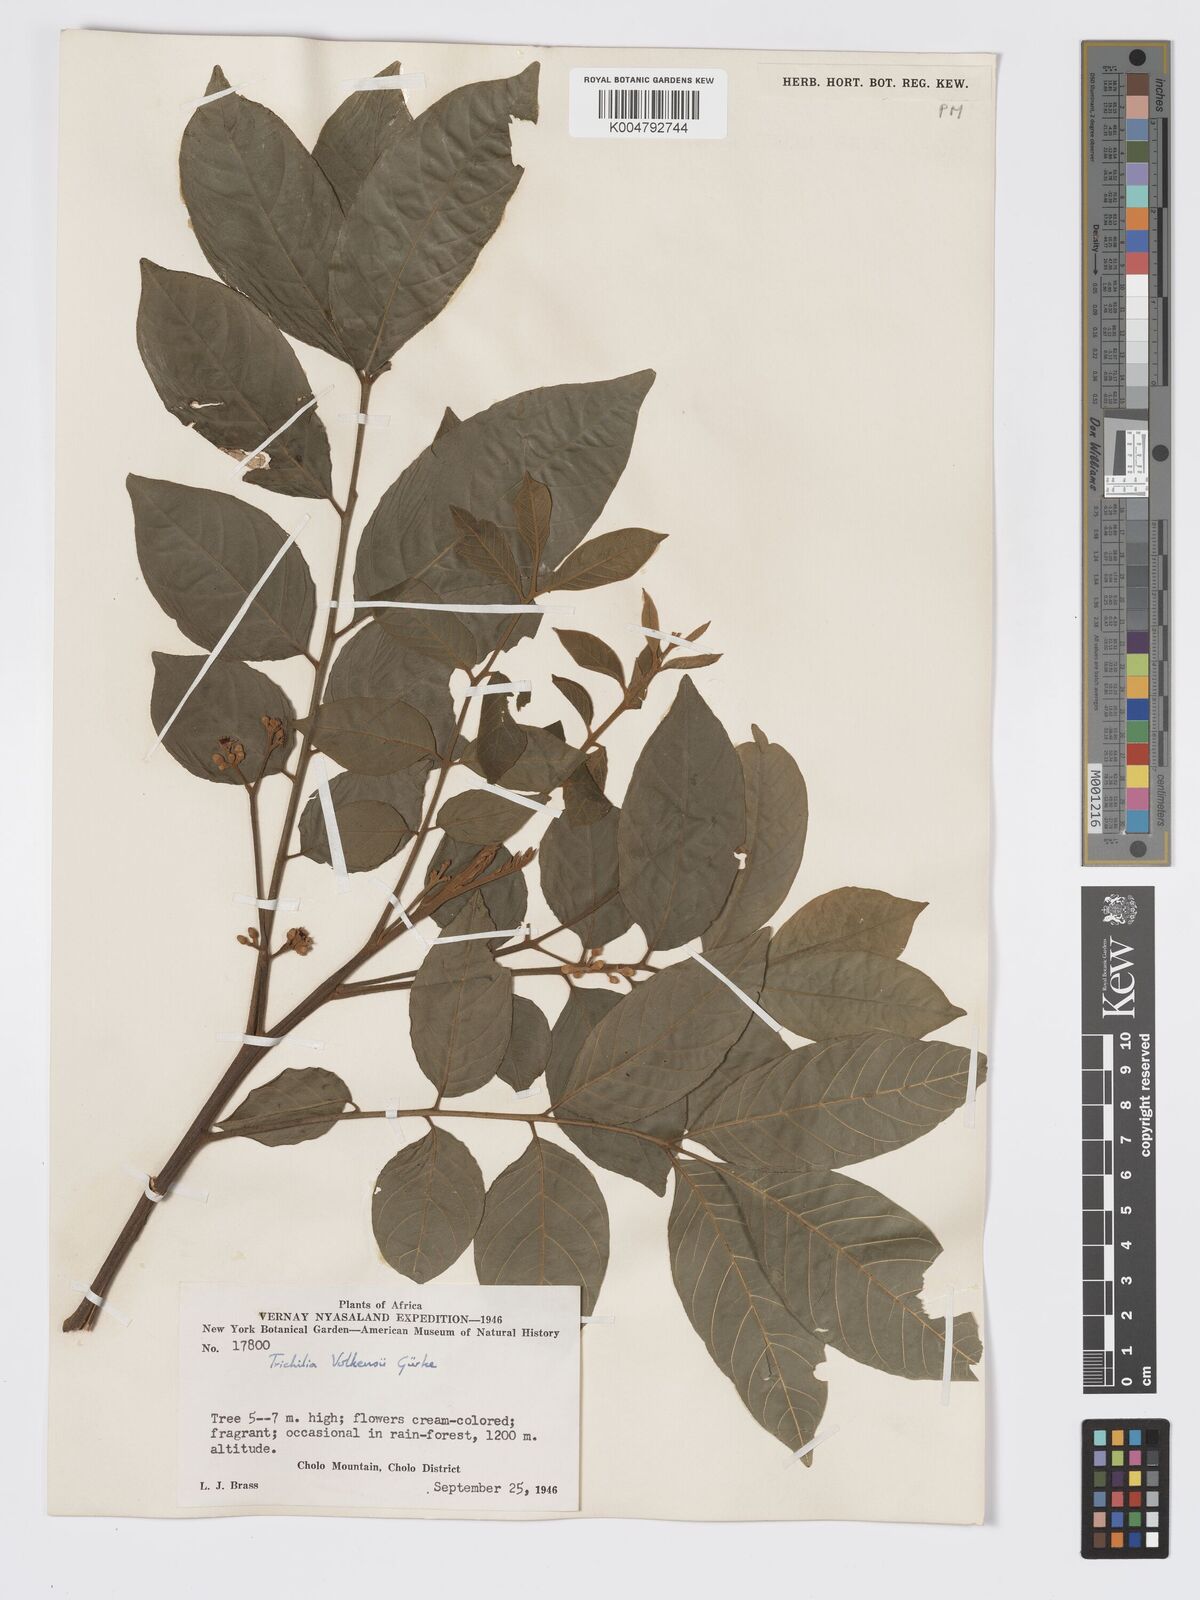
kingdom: Plantae
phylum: Tracheophyta
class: Magnoliopsida
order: Sapindales
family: Meliaceae
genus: Lepidotrichilia
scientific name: Lepidotrichilia volkensii
